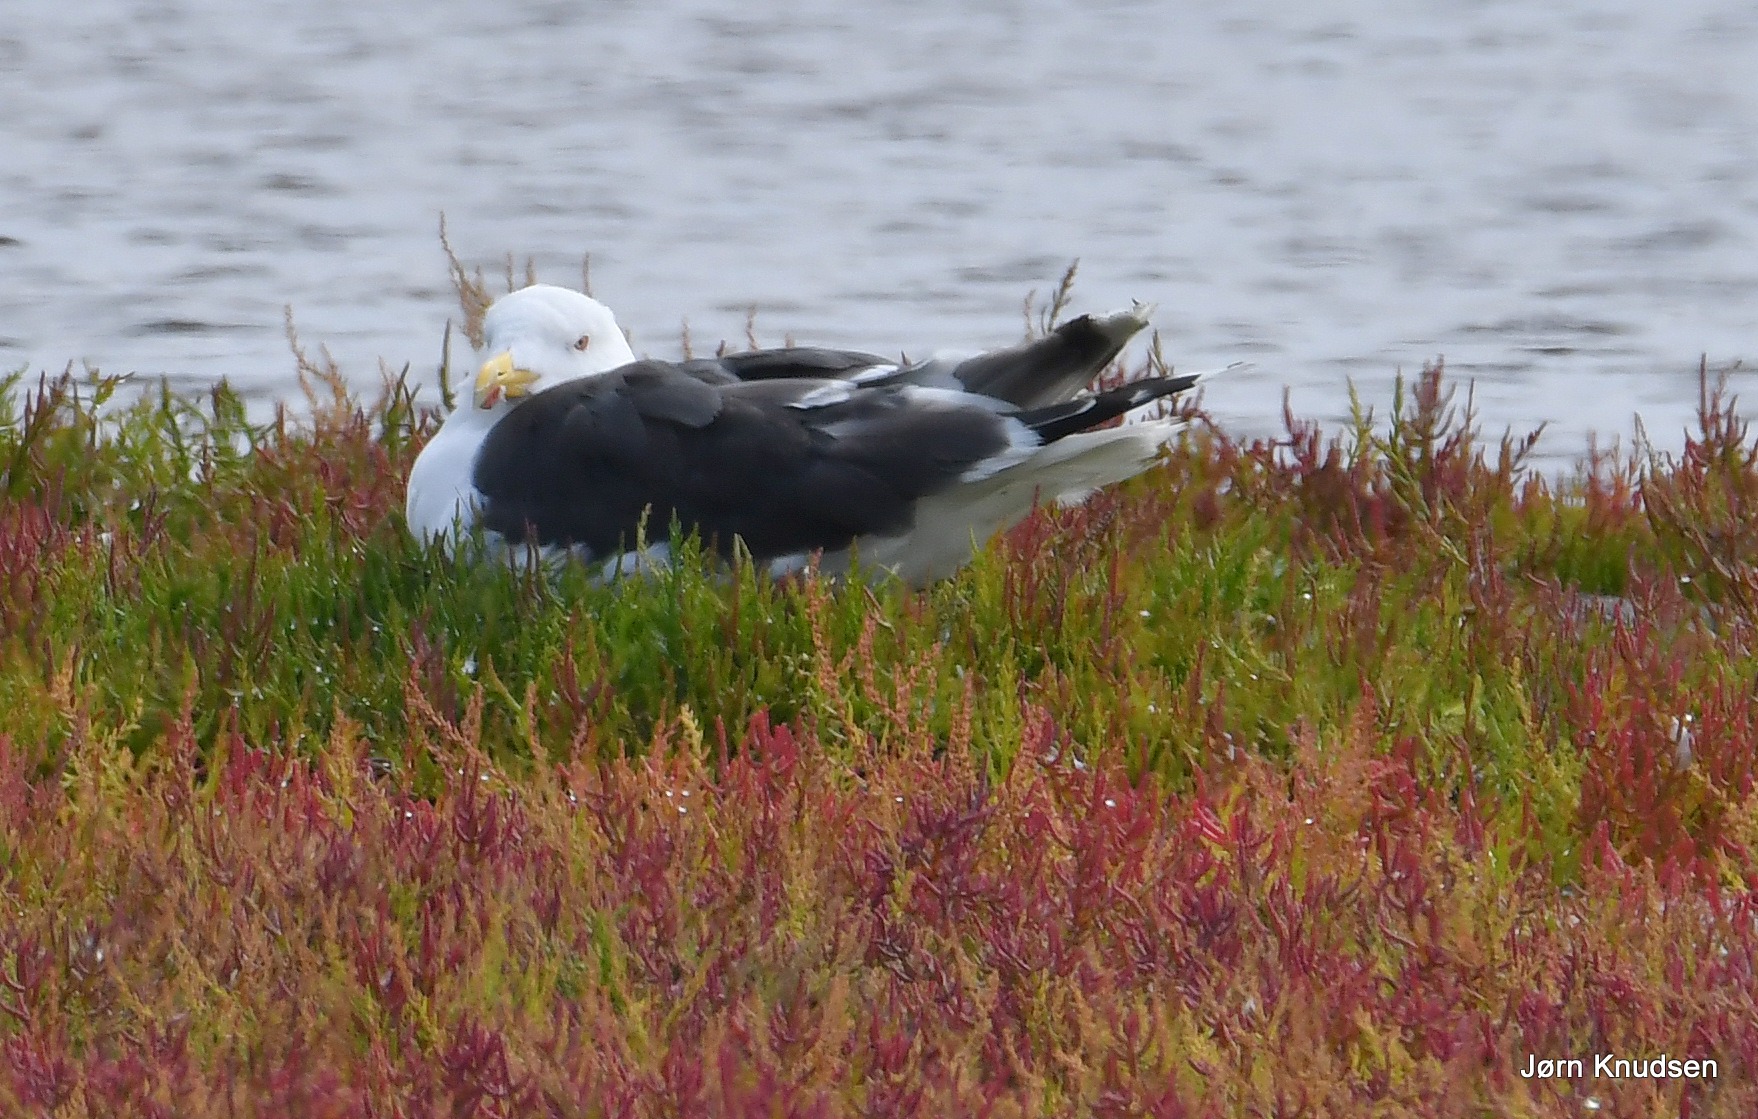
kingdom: Animalia
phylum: Chordata
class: Aves
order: Charadriiformes
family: Laridae
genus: Larus
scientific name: Larus marinus
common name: Svartbag
